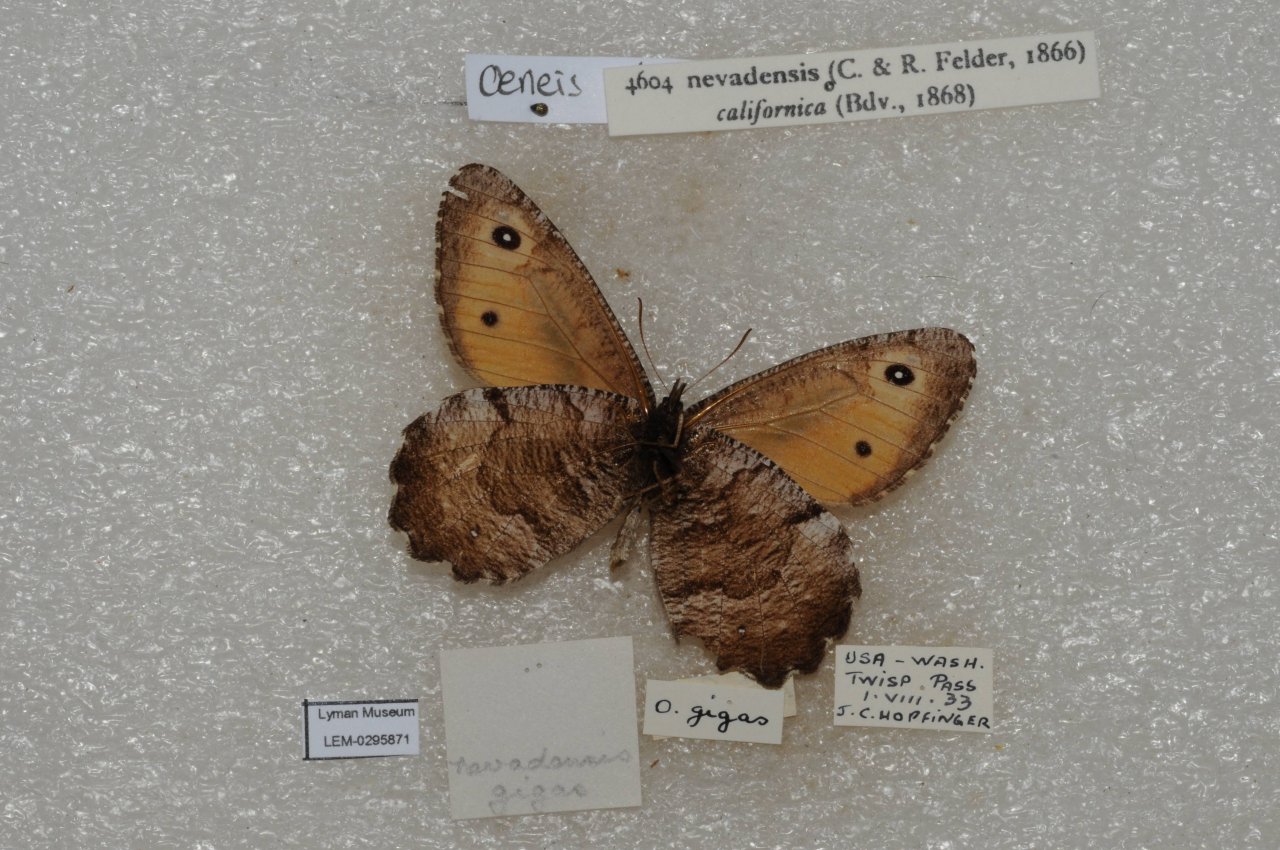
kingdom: Animalia
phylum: Arthropoda
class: Insecta
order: Lepidoptera
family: Nymphalidae
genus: Oeneis
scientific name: Oeneis nevadensis
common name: Great Arctic
